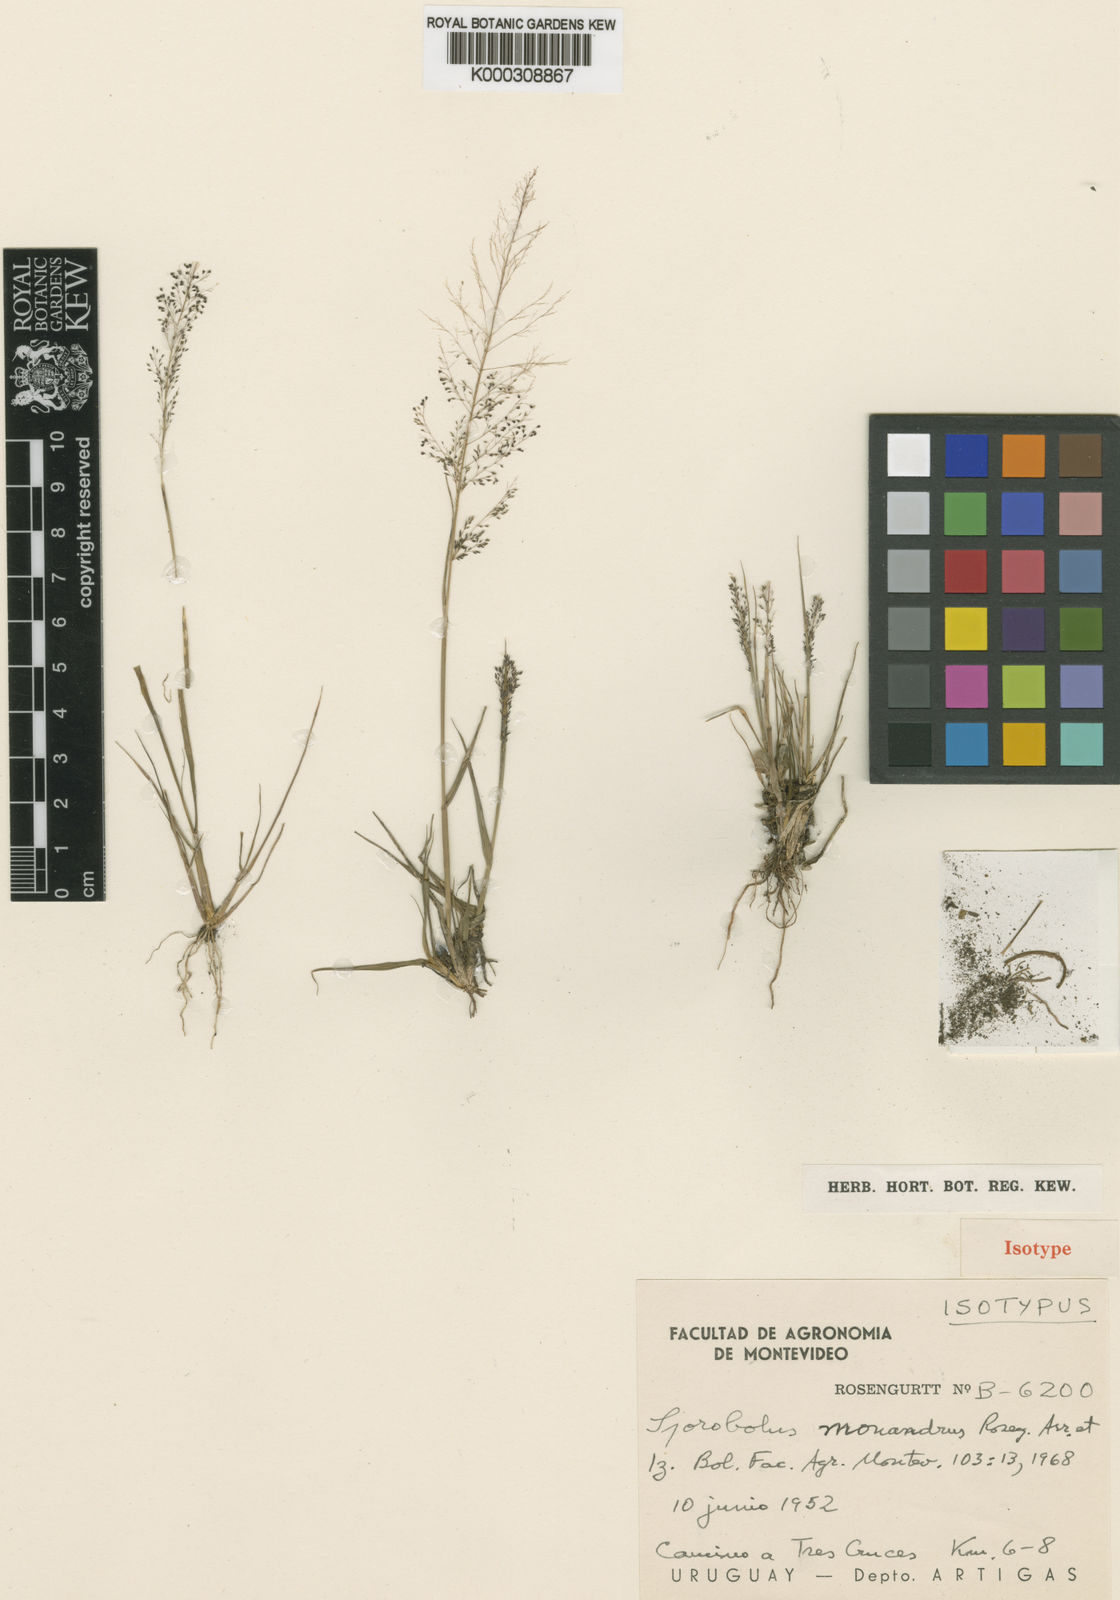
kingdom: Plantae
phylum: Tracheophyta
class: Liliopsida
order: Poales
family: Poaceae
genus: Sporobolus
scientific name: Sporobolus
